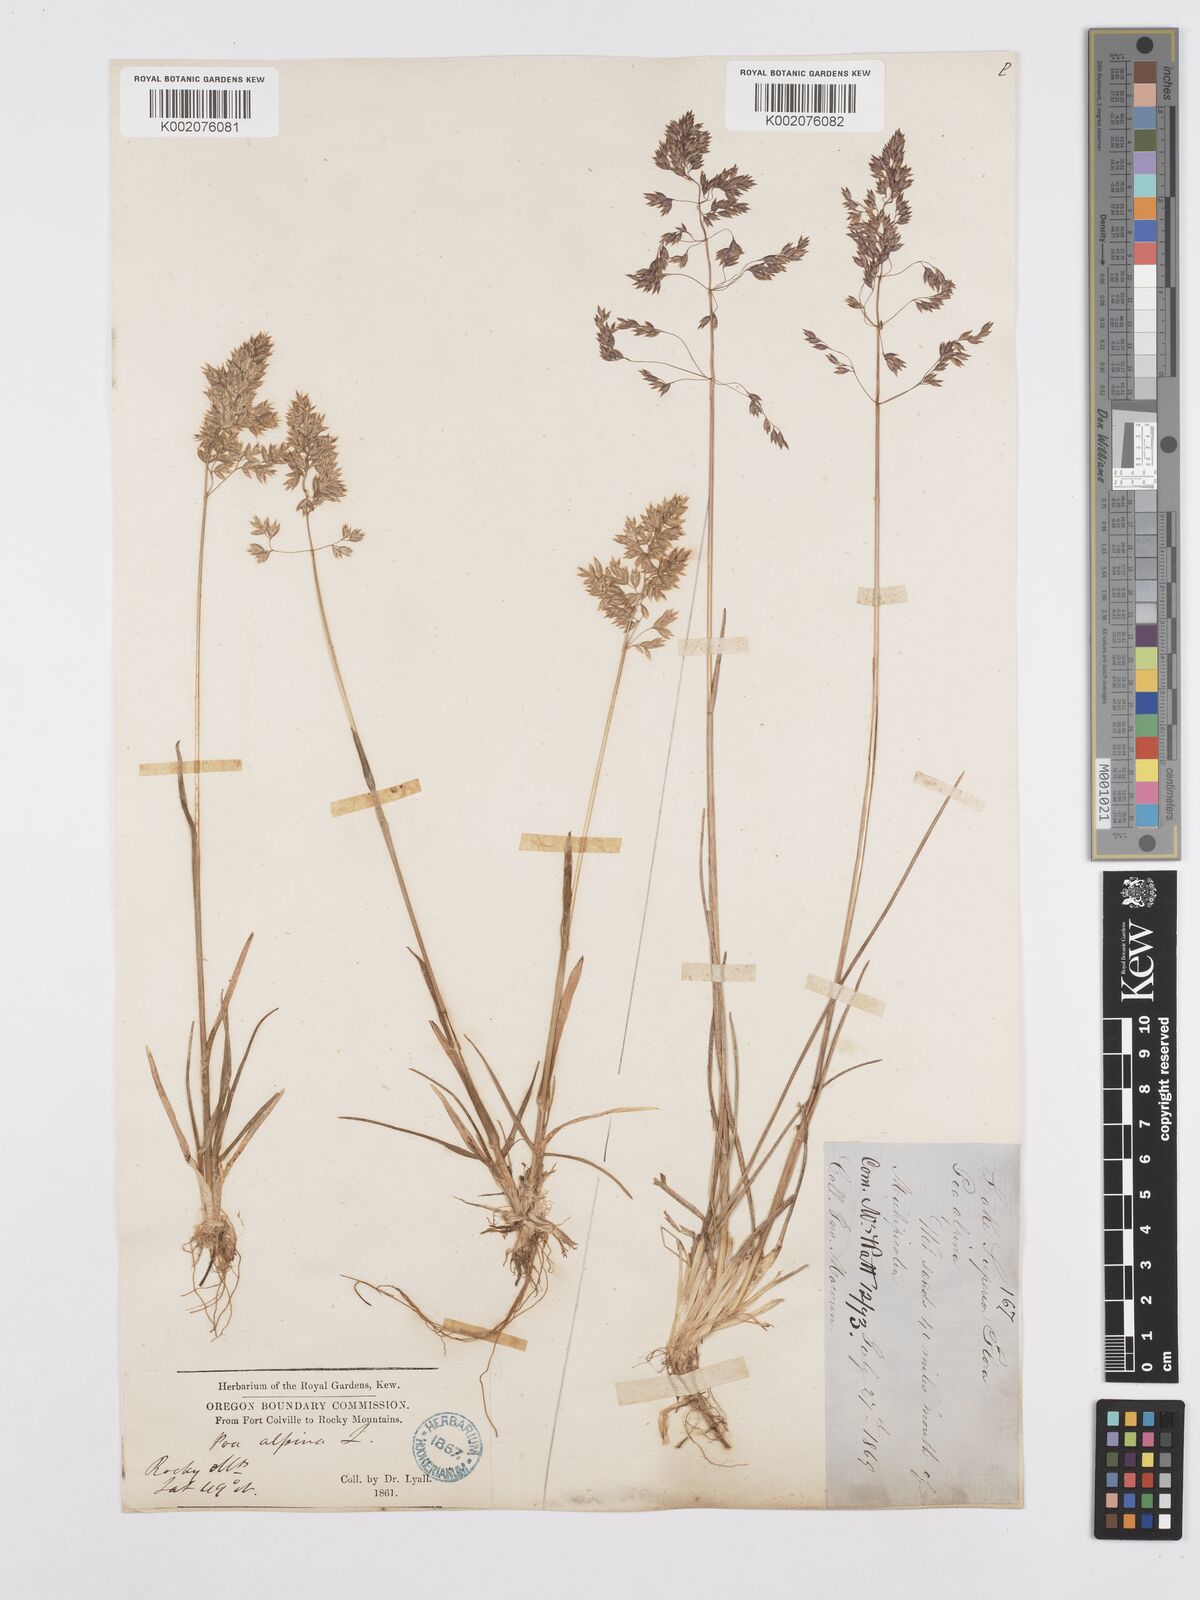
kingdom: Plantae
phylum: Tracheophyta
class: Liliopsida
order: Poales
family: Poaceae
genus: Poa
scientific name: Poa alpina
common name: Alpine bluegrass
